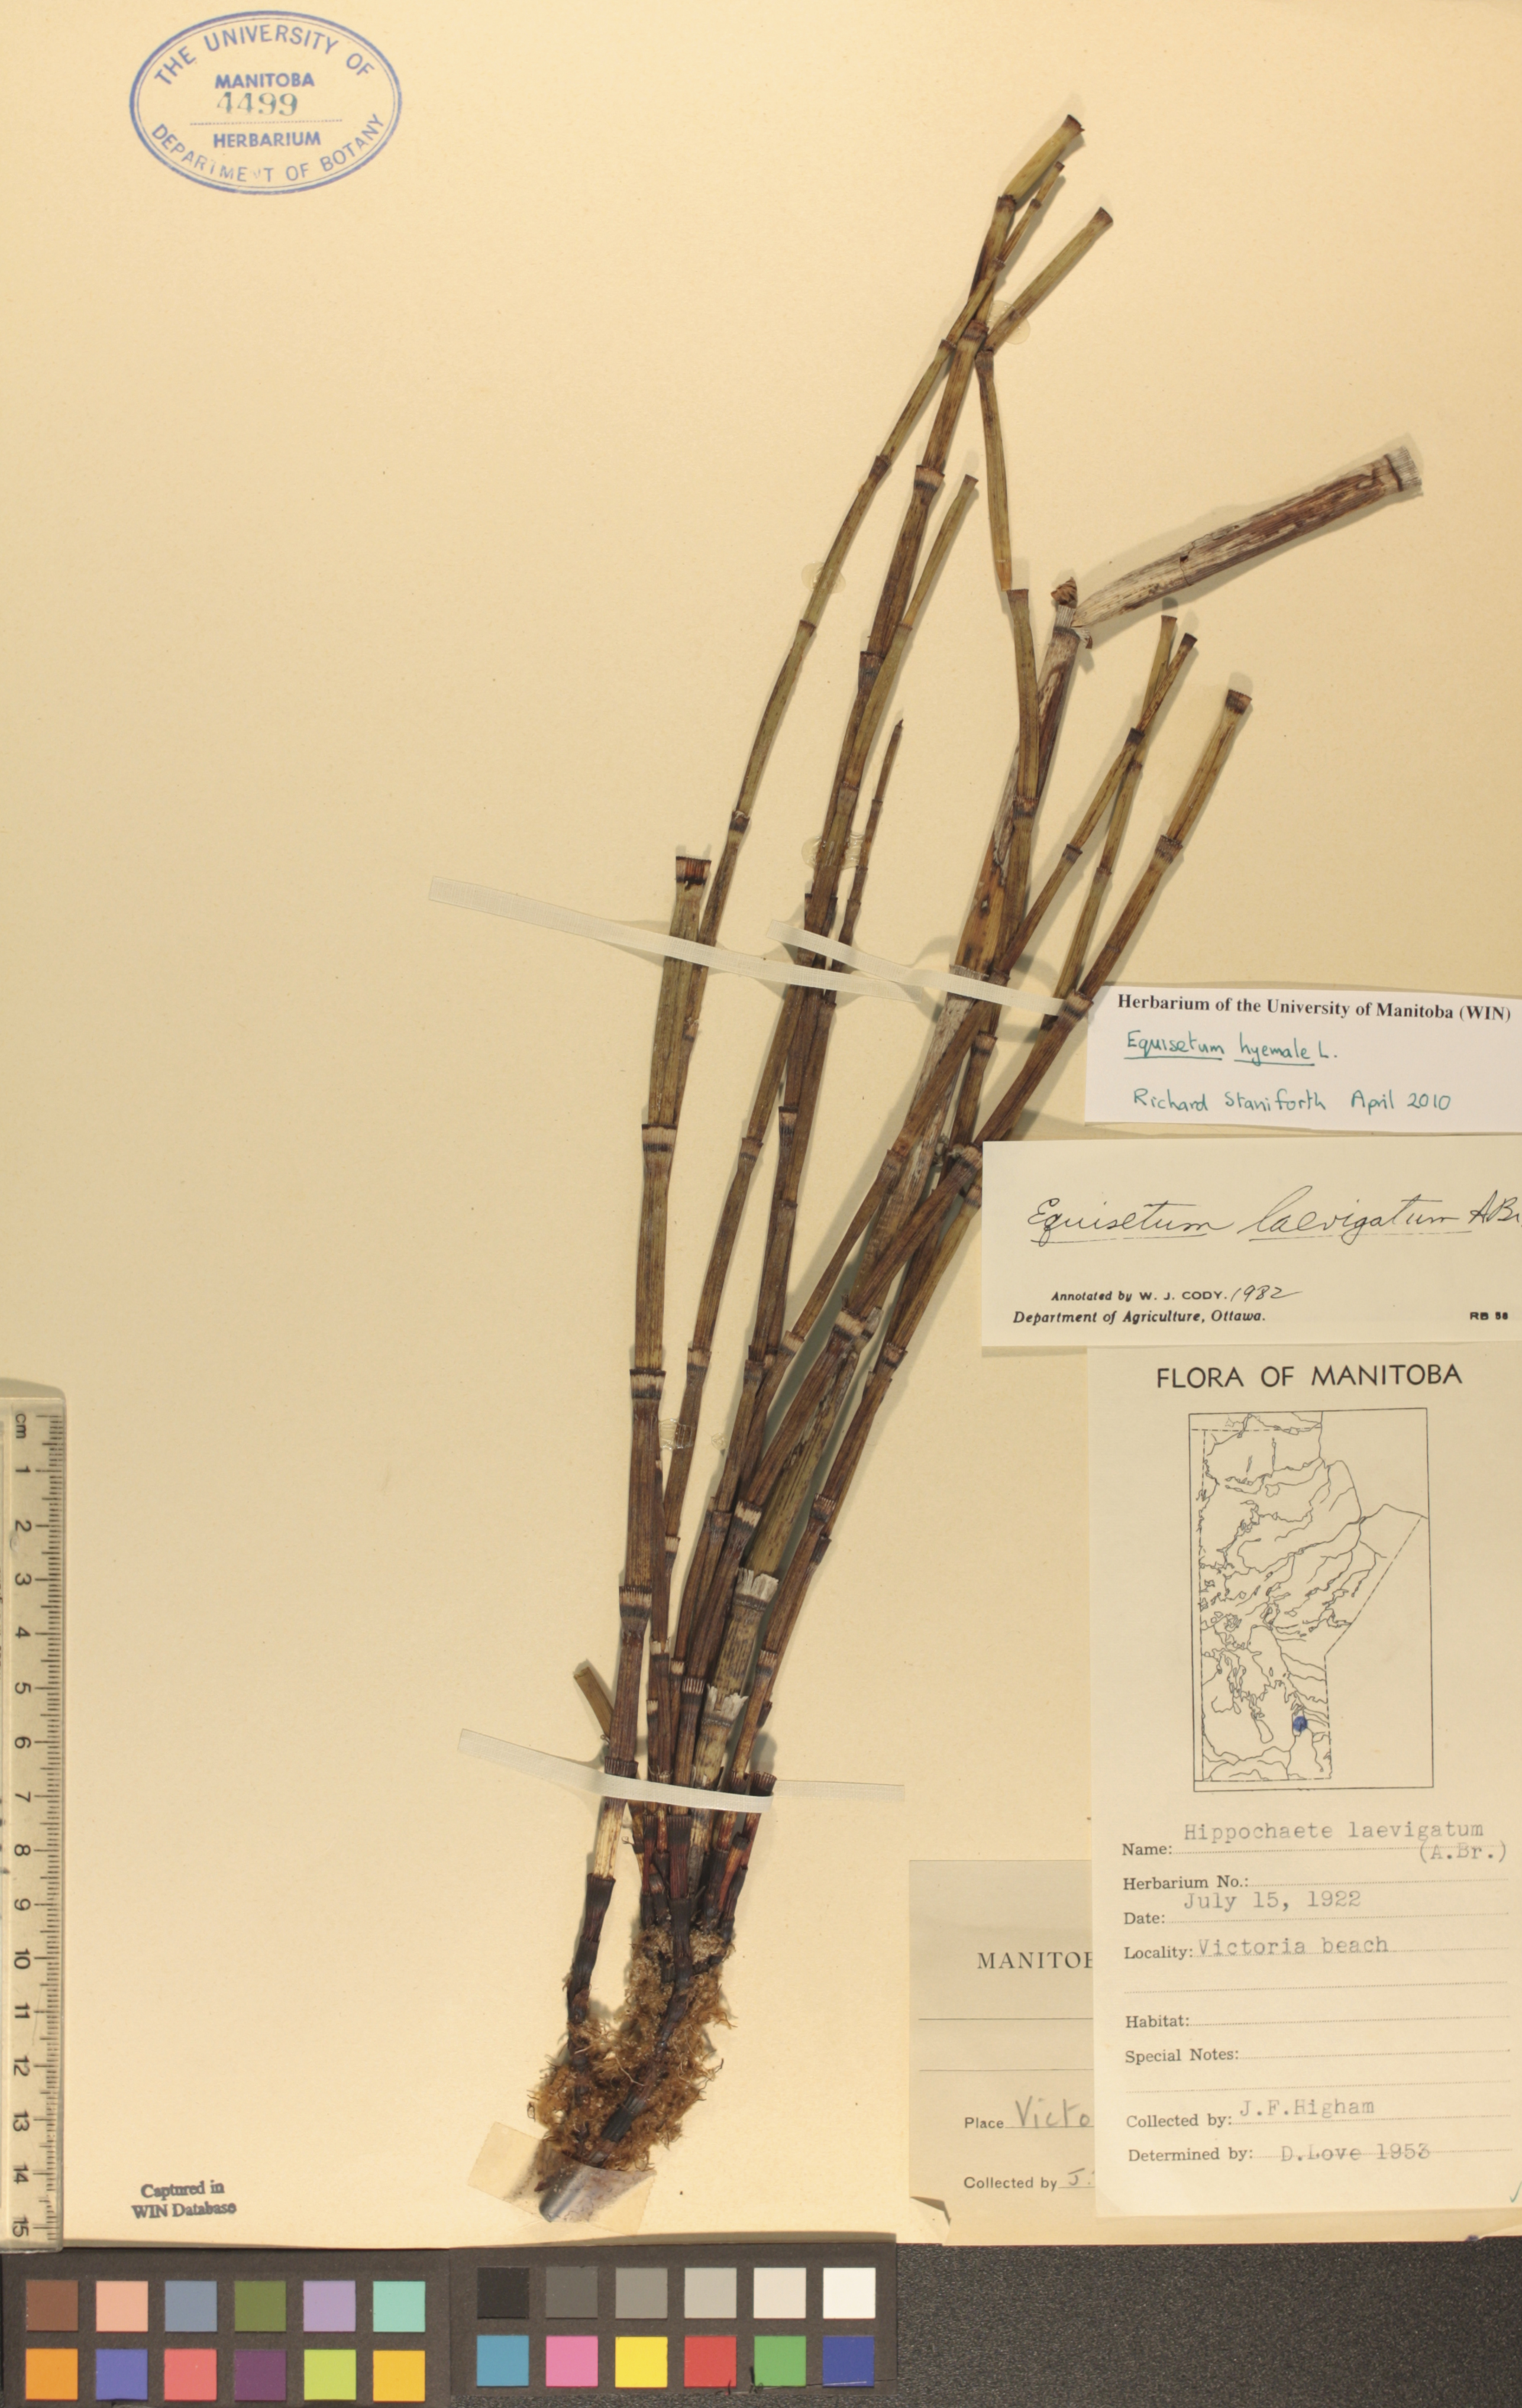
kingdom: Plantae
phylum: Tracheophyta
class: Polypodiopsida
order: Equisetales
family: Equisetaceae
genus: Equisetum
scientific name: Equisetum hyemale
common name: Rough horsetail
